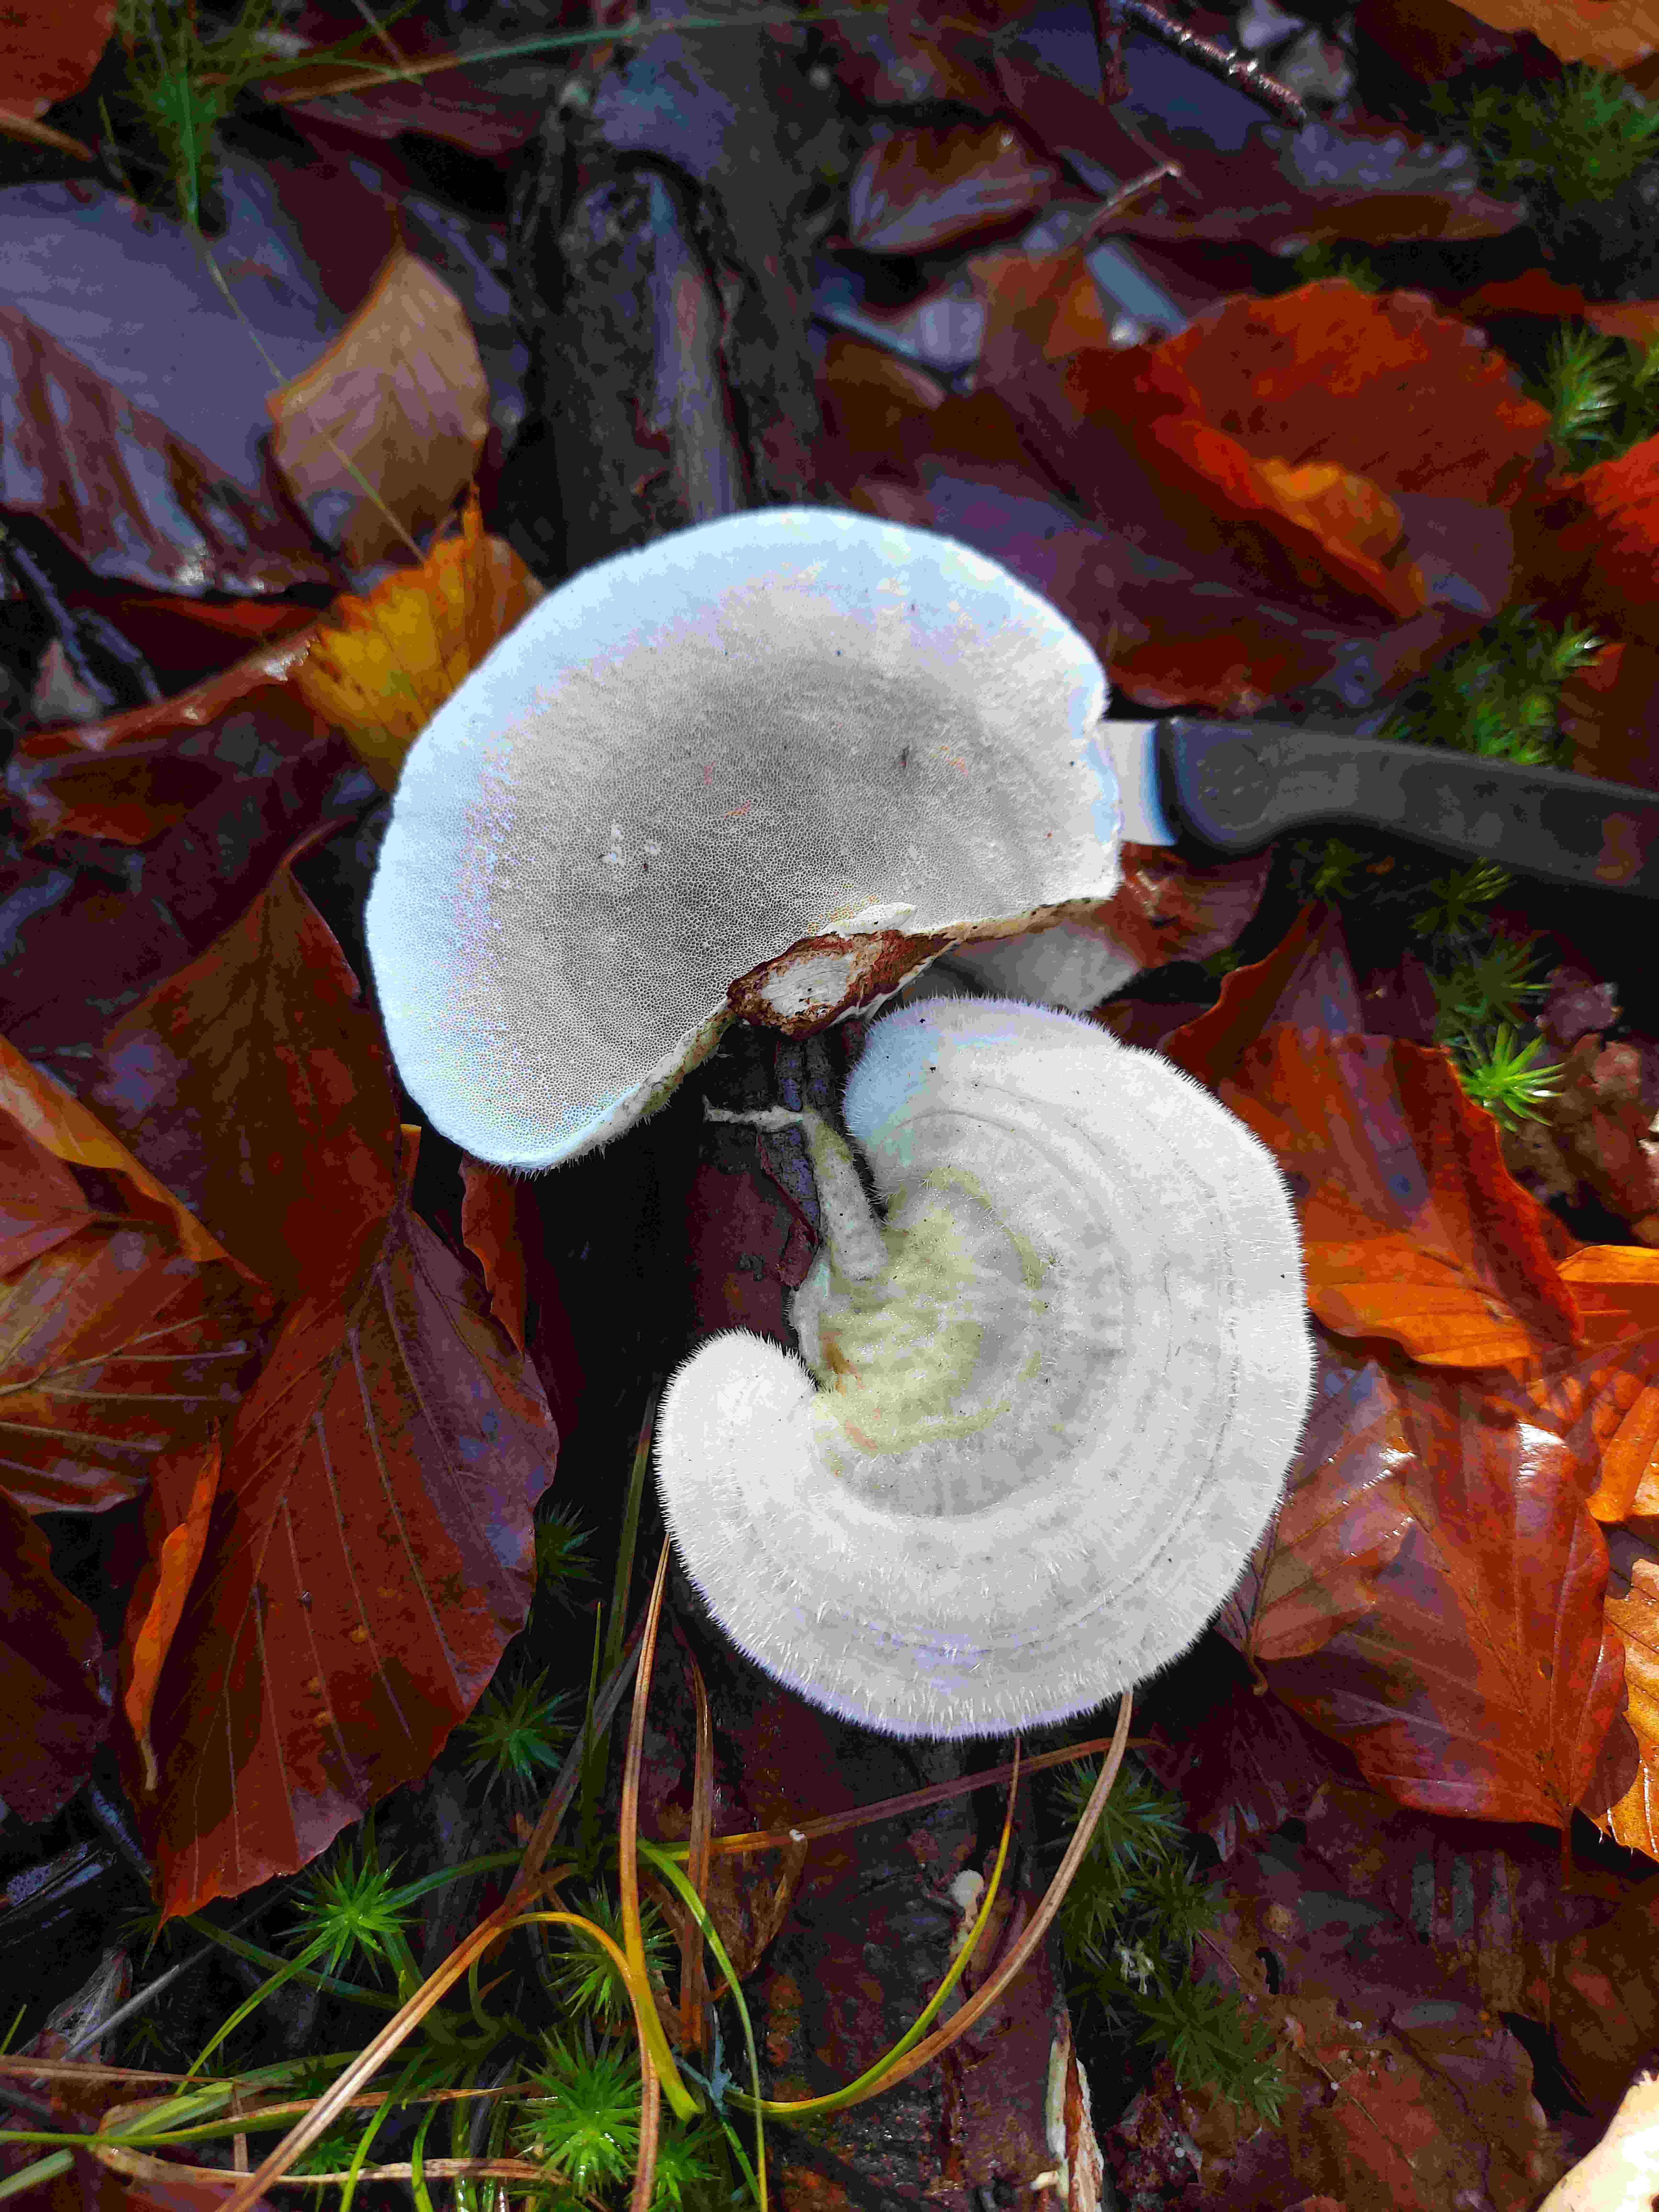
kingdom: Fungi
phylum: Basidiomycota
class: Agaricomycetes
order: Polyporales
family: Polyporaceae
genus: Trametes
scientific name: Trametes hirsuta
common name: håret læderporesvamp
